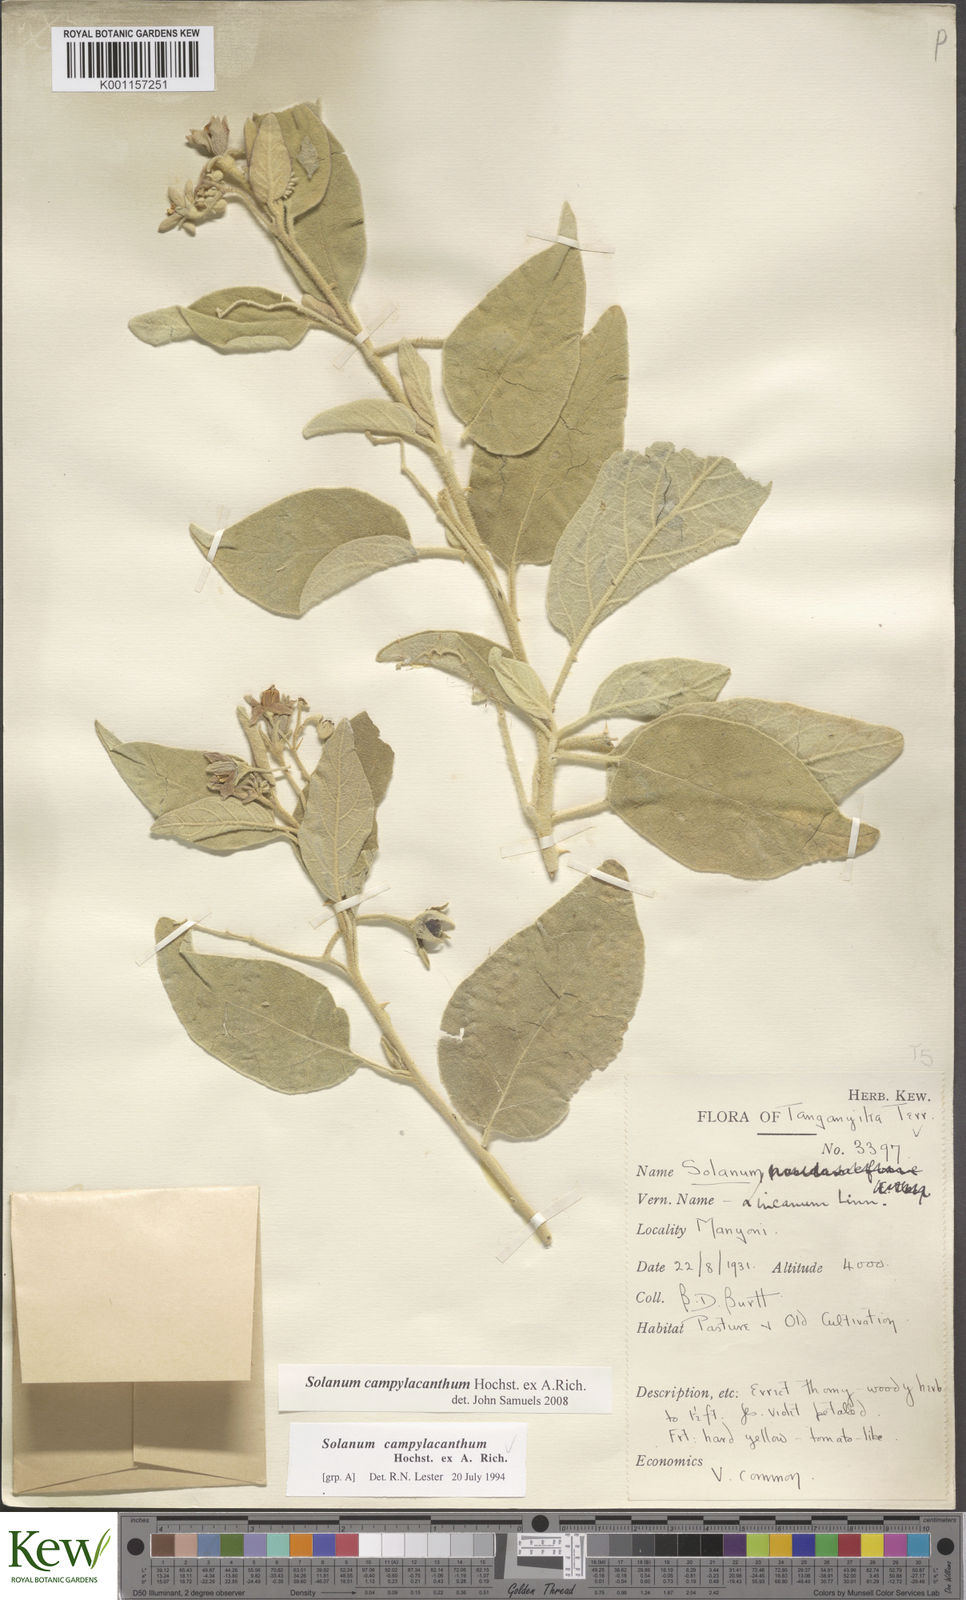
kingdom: Plantae
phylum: Tracheophyta
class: Magnoliopsida
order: Solanales
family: Solanaceae
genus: Solanum
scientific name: Solanum campylacanthum
